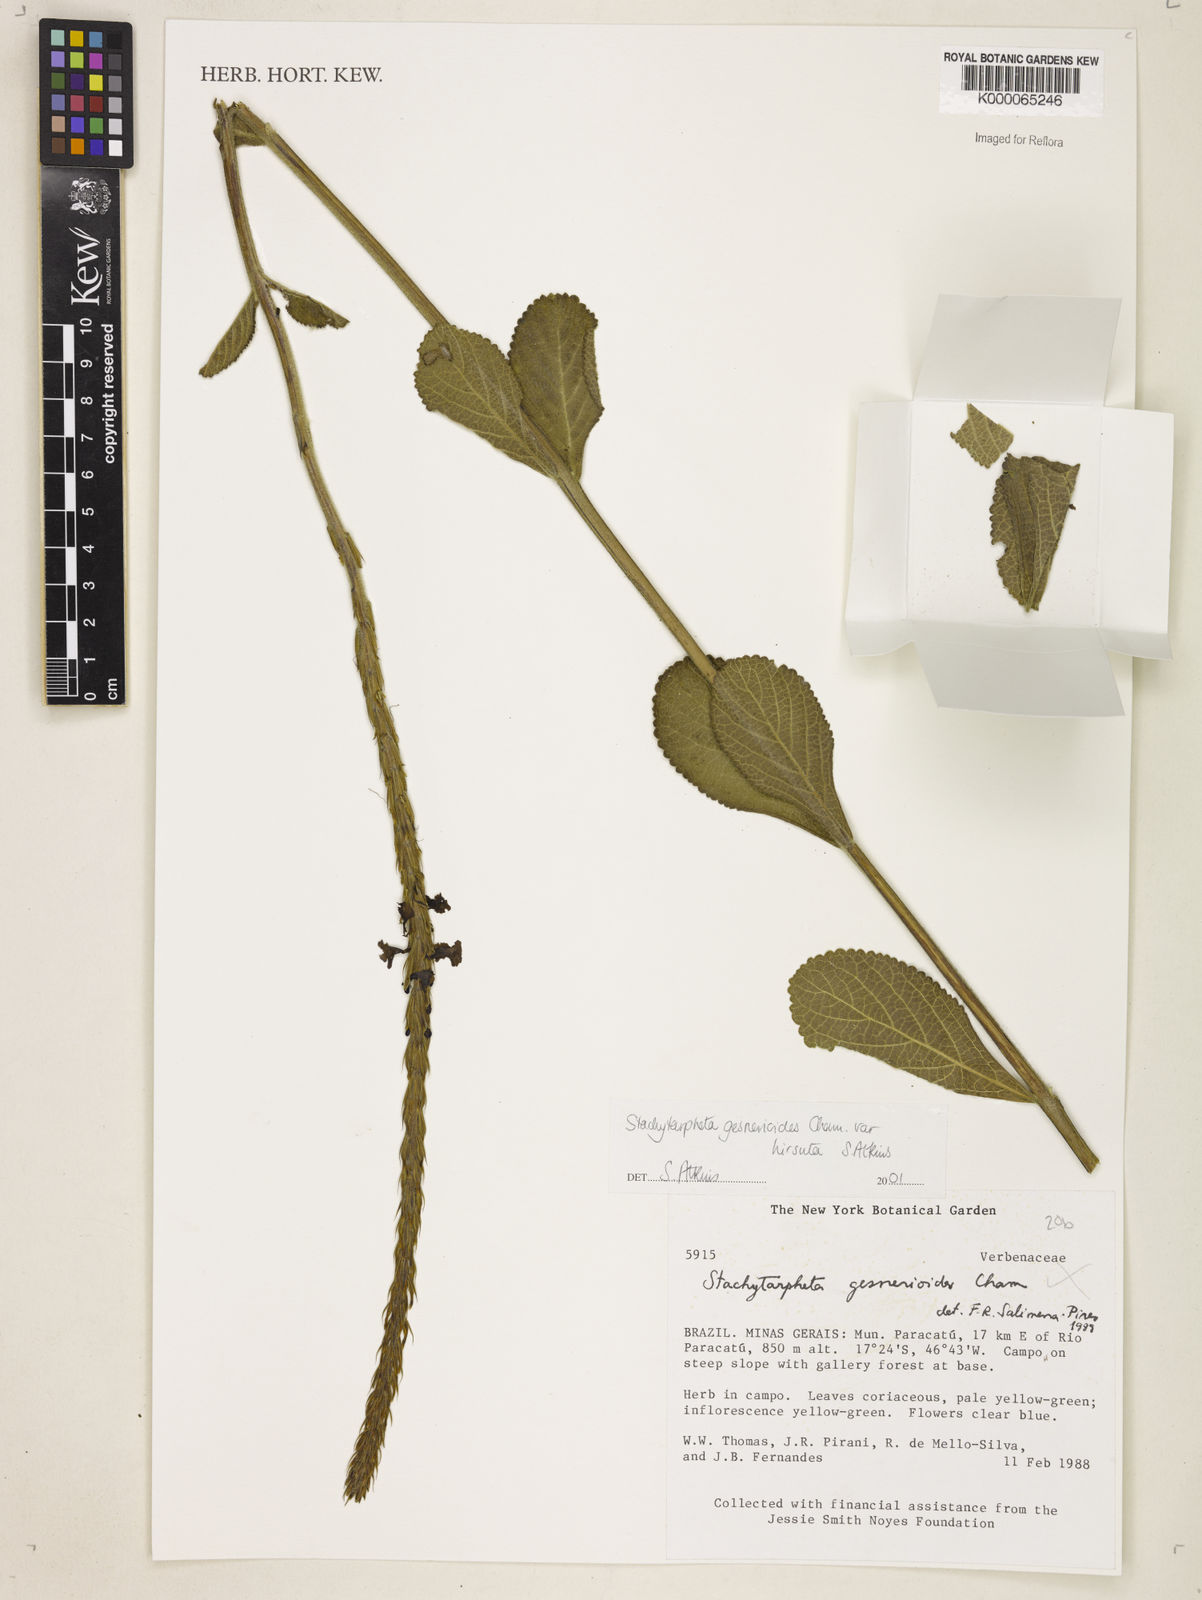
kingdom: Plantae
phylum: Tracheophyta
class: Magnoliopsida
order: Lamiales
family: Verbenaceae
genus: Stachytarpheta
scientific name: Stachytarpheta gesnerioides
